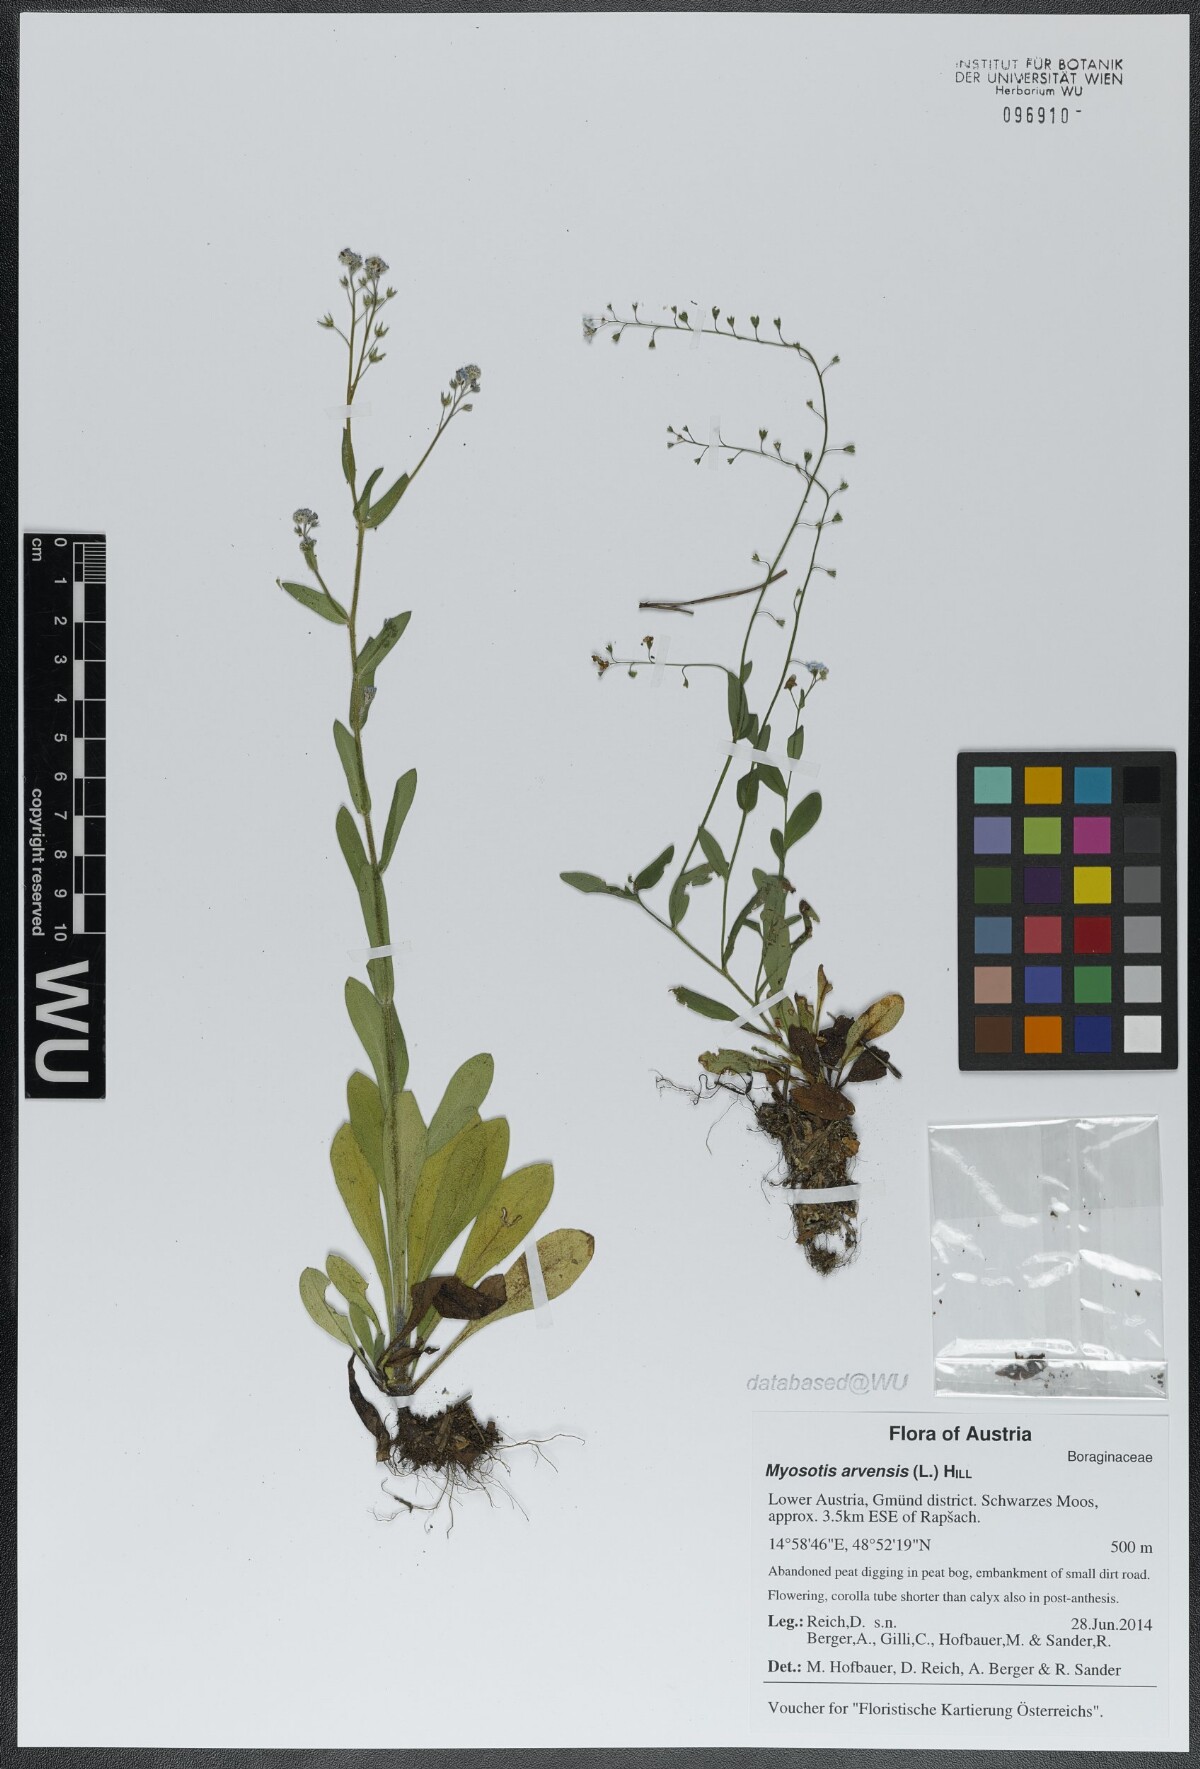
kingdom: Plantae
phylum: Tracheophyta
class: Magnoliopsida
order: Boraginales
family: Boraginaceae
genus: Myosotis
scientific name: Myosotis arvensis
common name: Field forget-me-not
